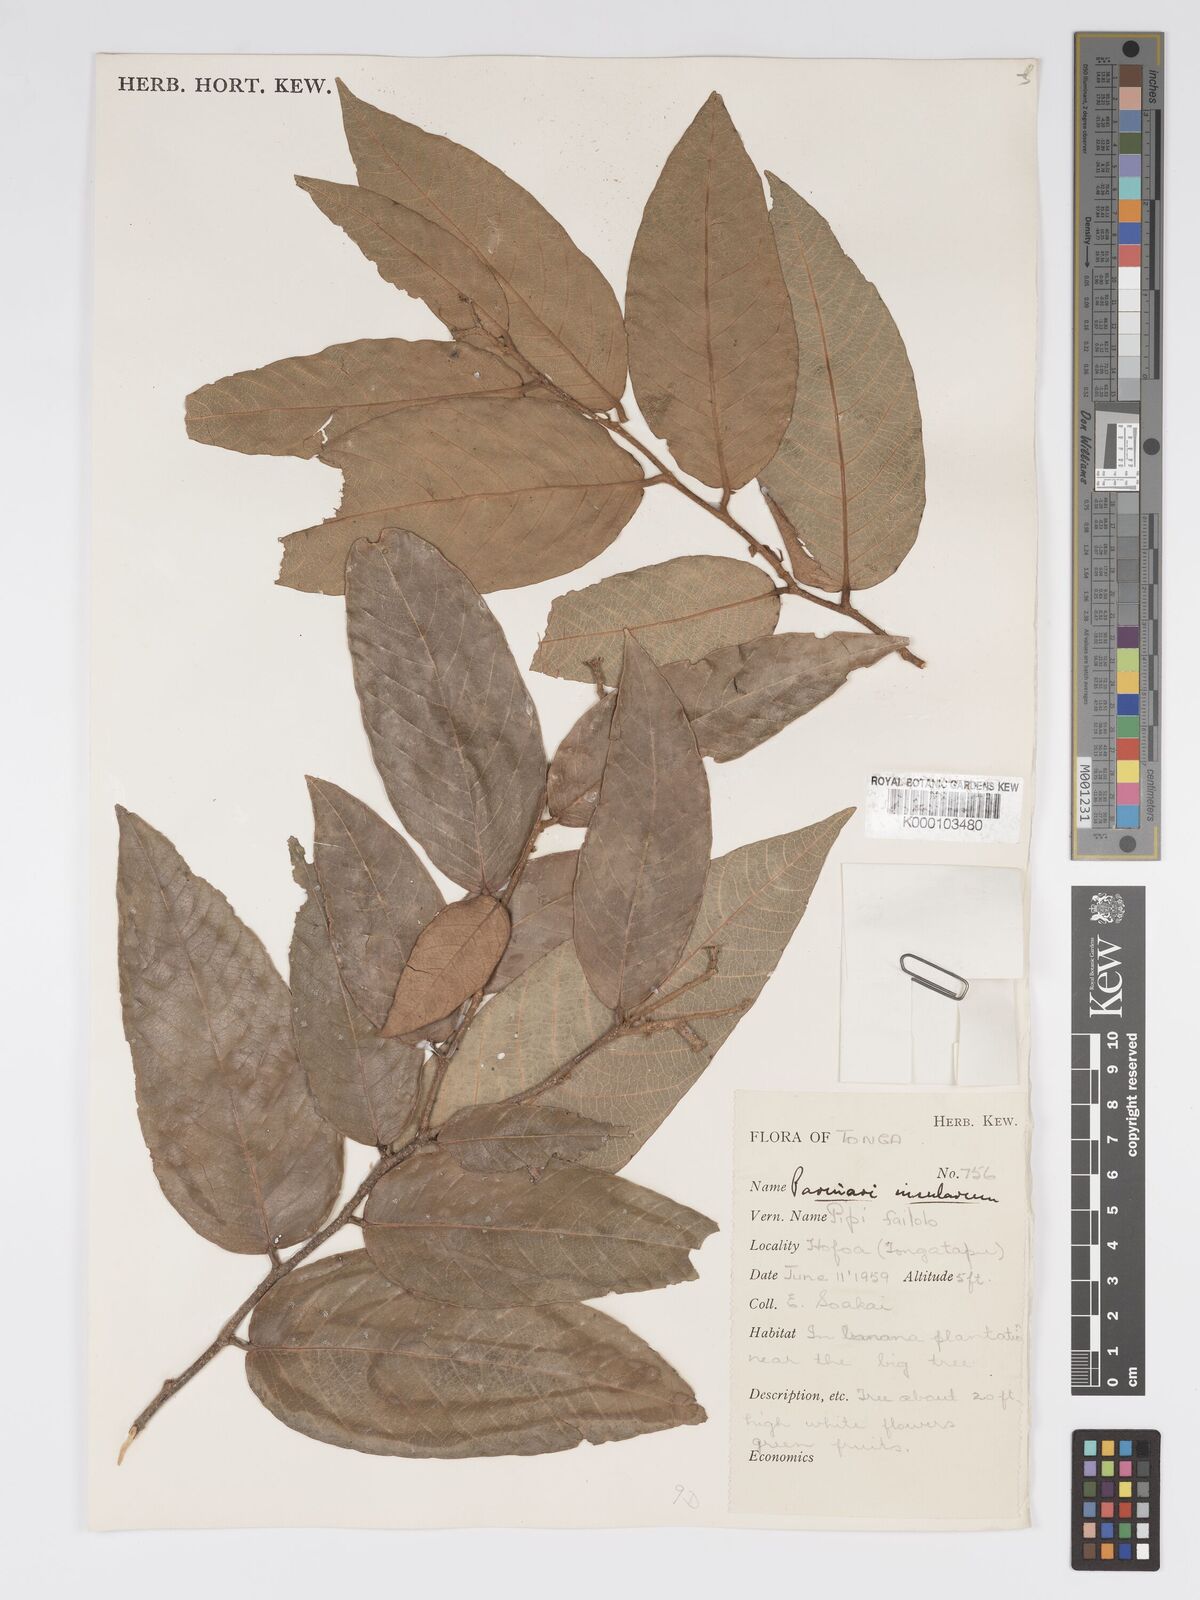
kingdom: Plantae
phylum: Tracheophyta
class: Magnoliopsida
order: Malpighiales
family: Chrysobalanaceae
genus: Parinari
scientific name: Parinari insularum
